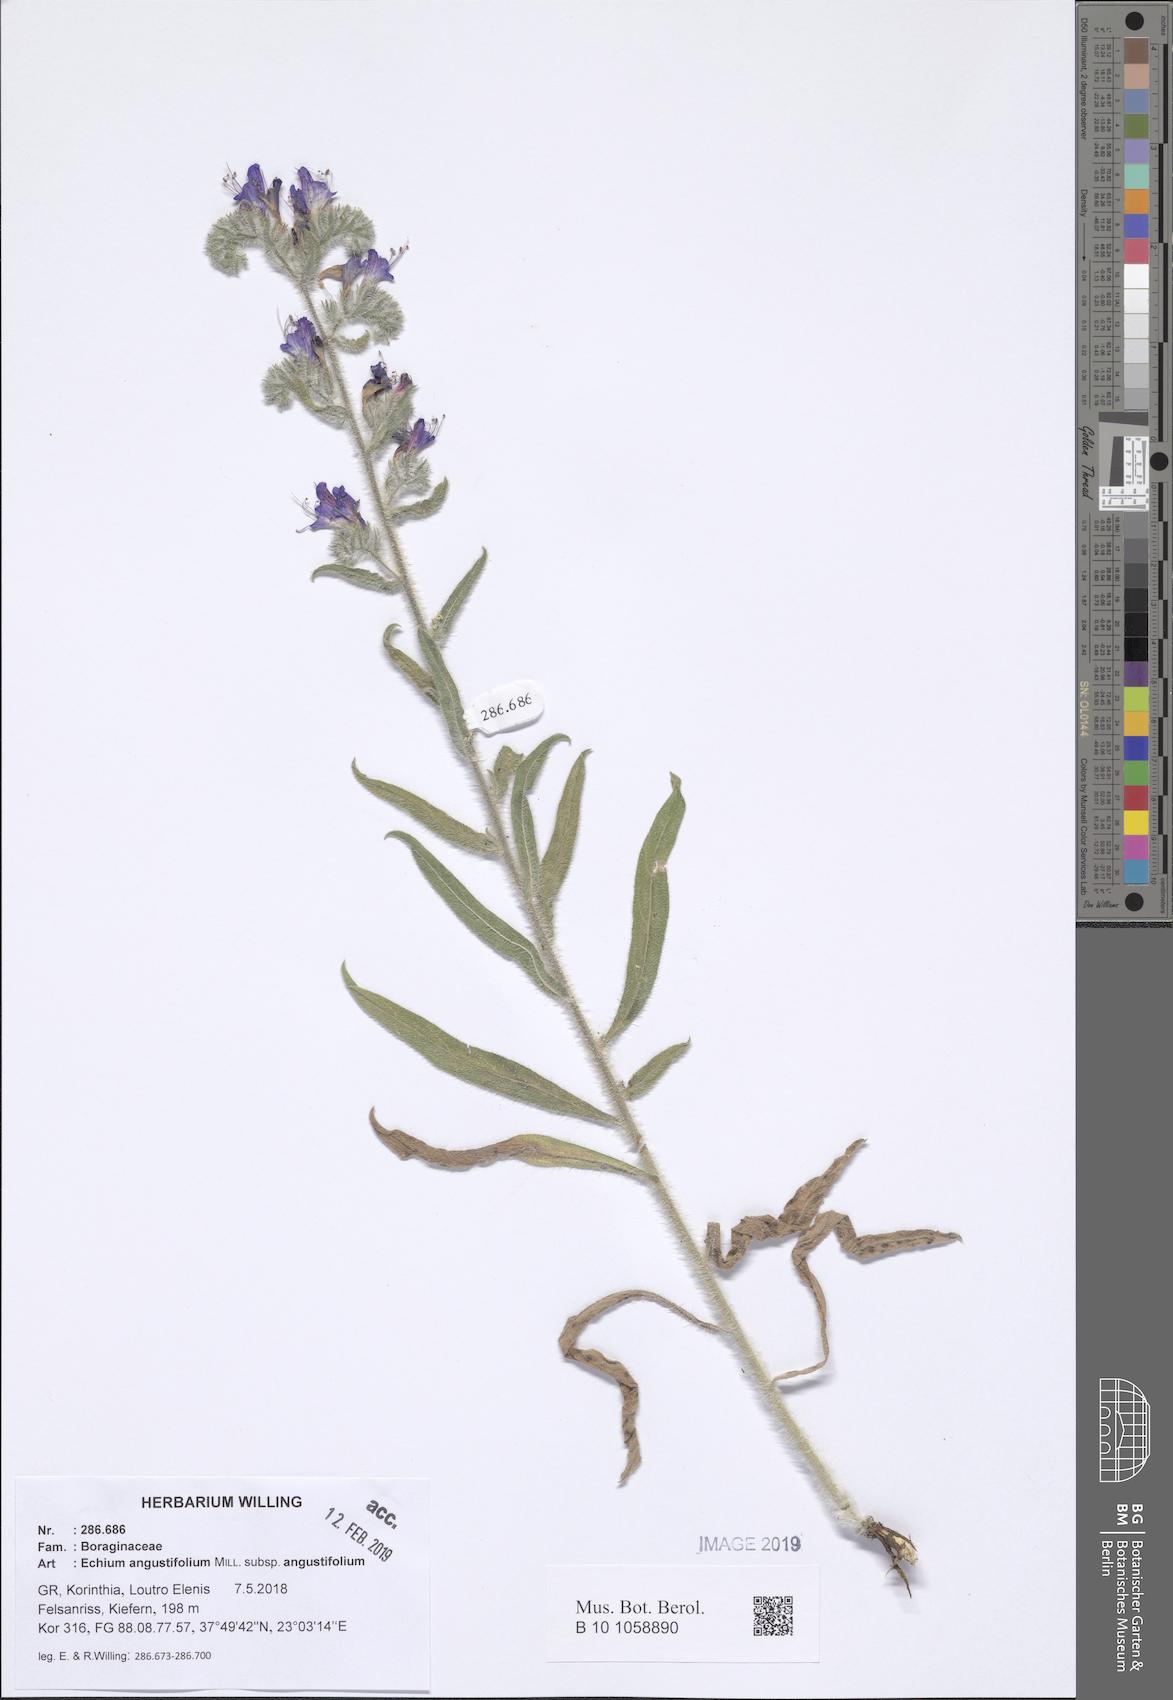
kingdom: Plantae
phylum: Tracheophyta
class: Magnoliopsida
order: Boraginales
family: Boraginaceae
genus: Echium
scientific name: Echium angustifolium
